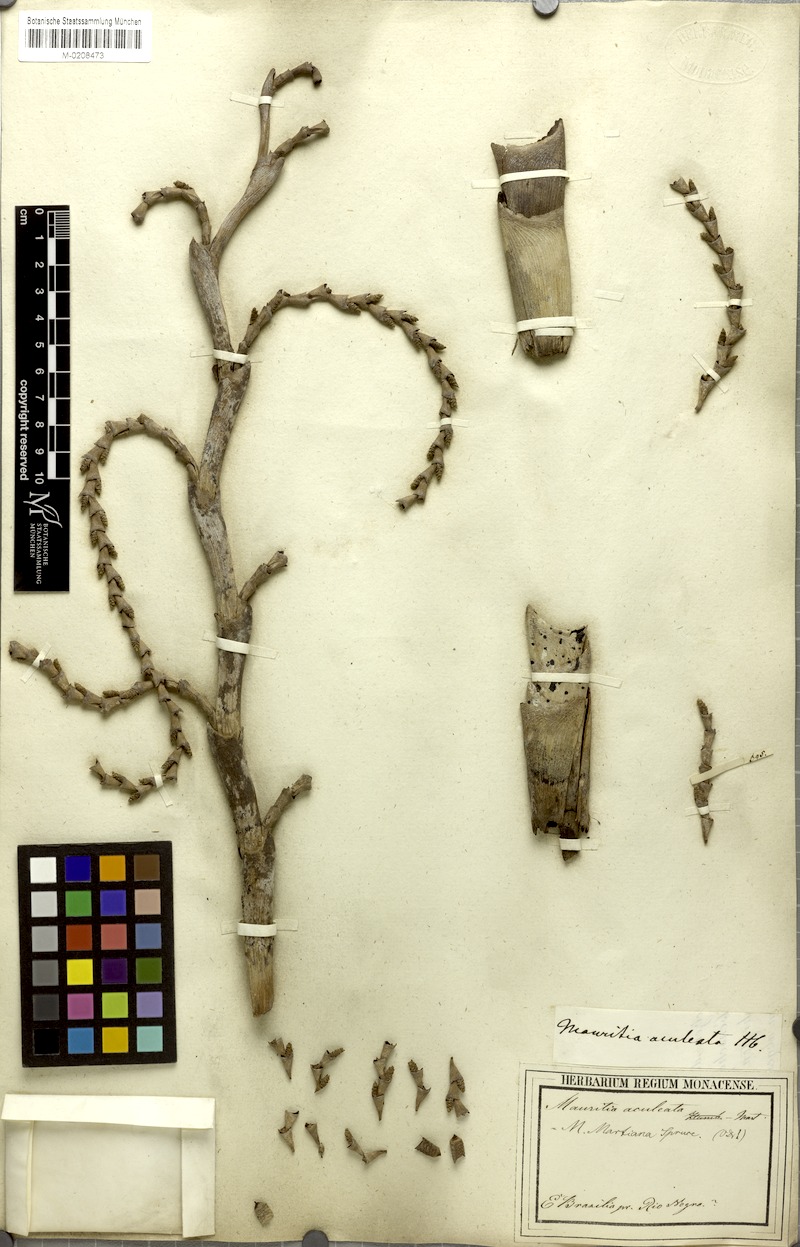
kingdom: Plantae
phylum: Tracheophyta
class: Liliopsida
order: Arecales
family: Arecaceae
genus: Mauritiella
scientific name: Mauritiella armata
